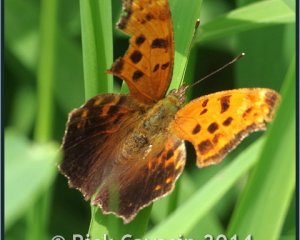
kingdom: Animalia
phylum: Arthropoda
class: Insecta
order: Lepidoptera
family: Nymphalidae
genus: Polygonia
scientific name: Polygonia comma
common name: Eastern Comma
